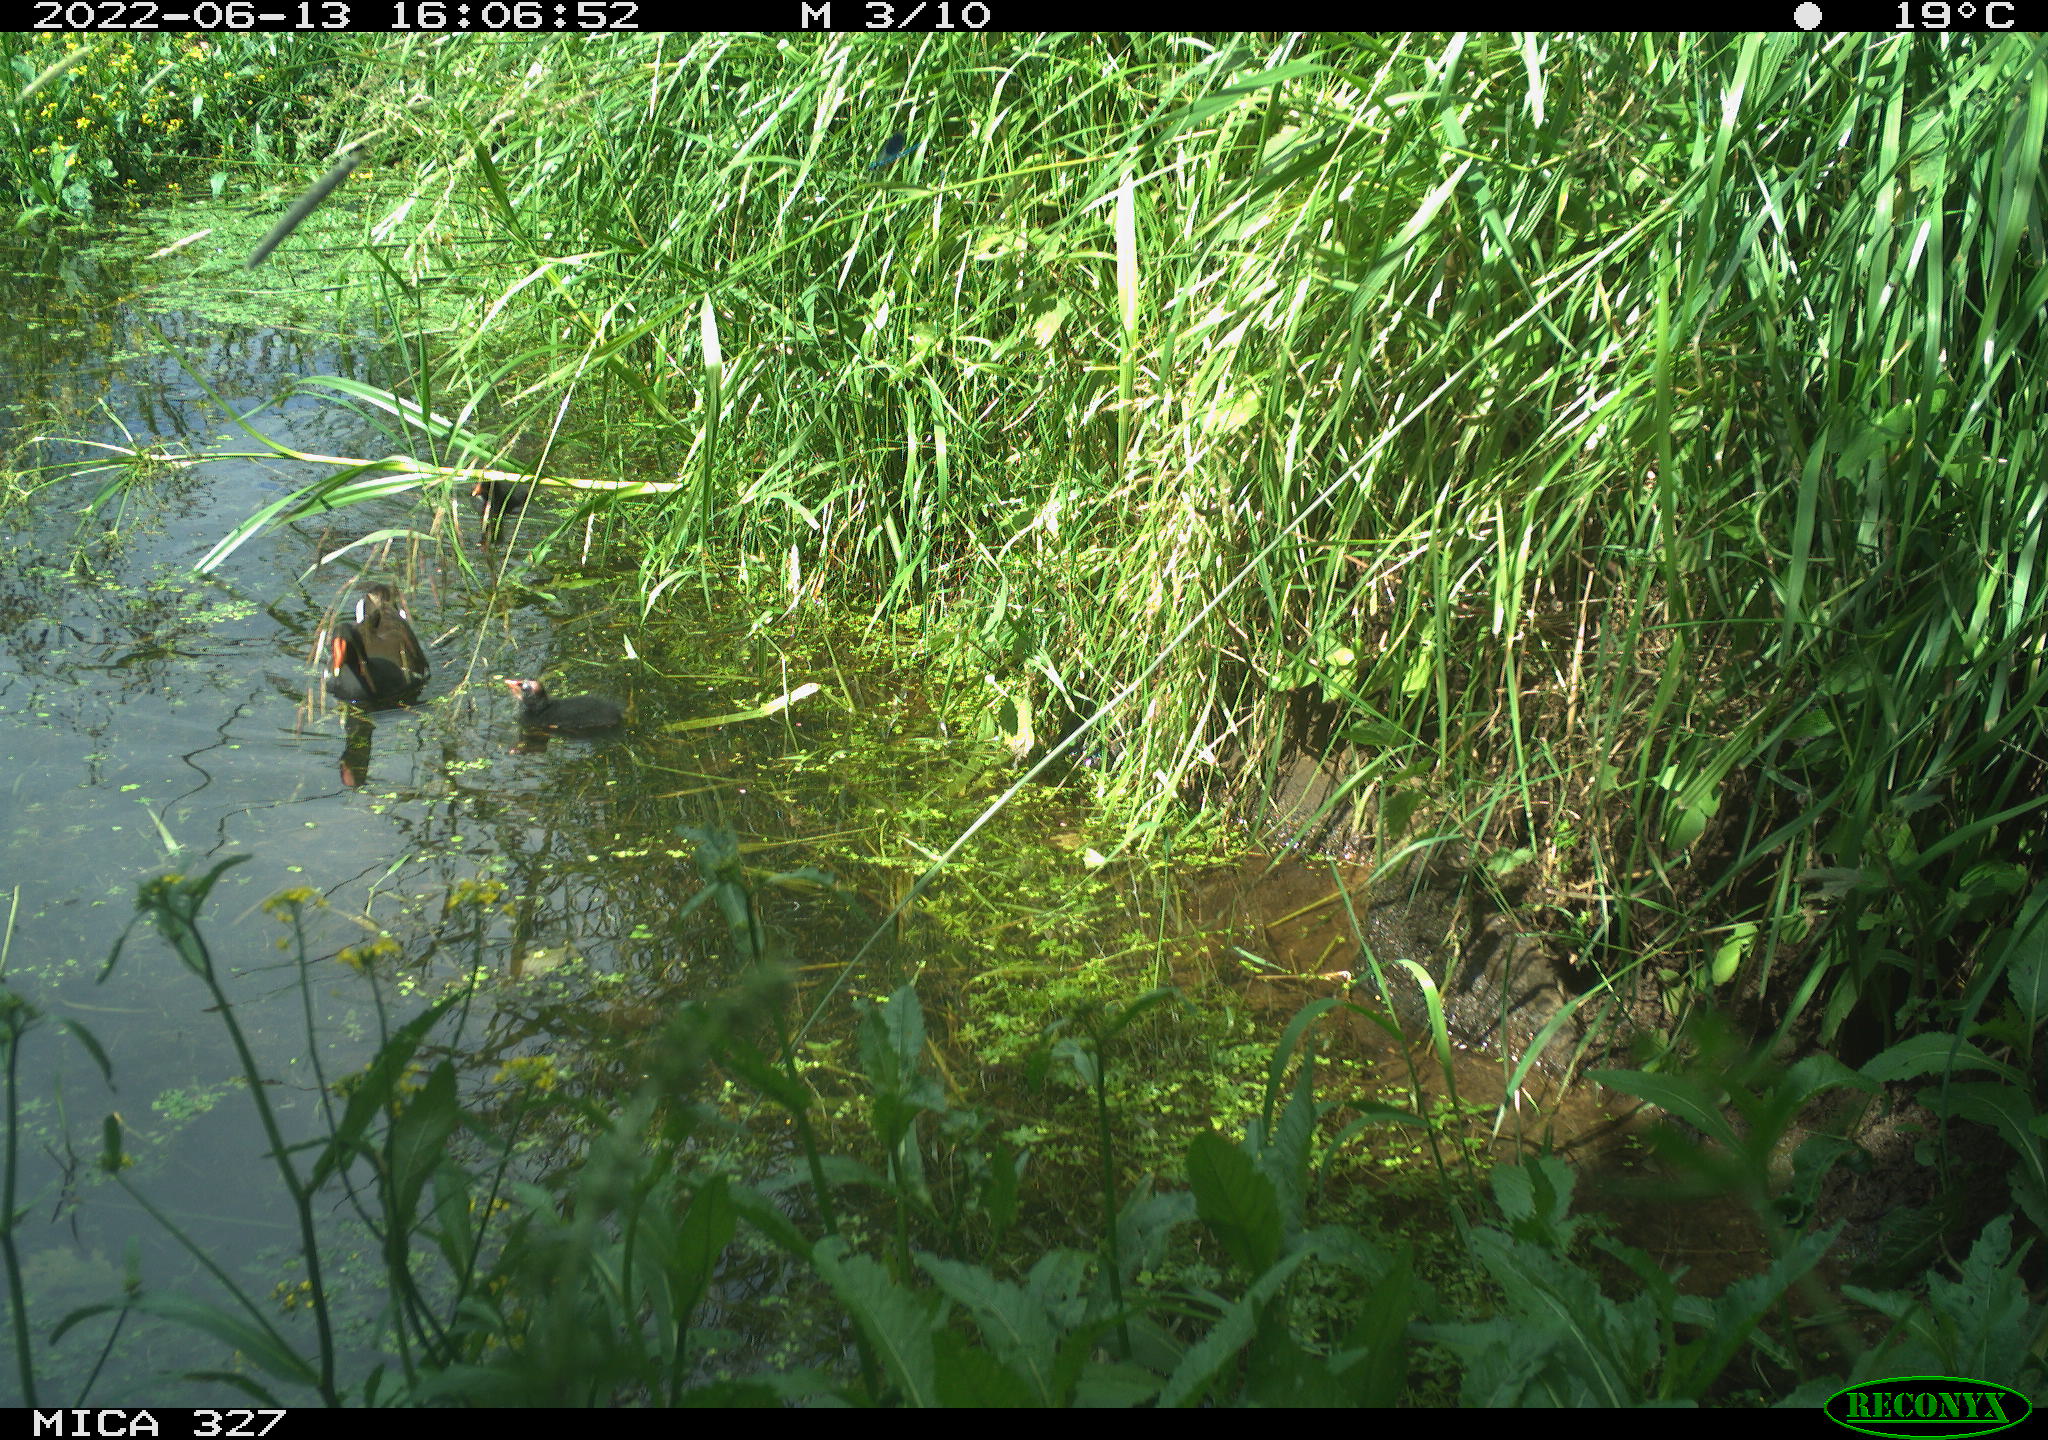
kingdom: Animalia
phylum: Chordata
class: Aves
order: Gruiformes
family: Rallidae
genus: Gallinula
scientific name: Gallinula chloropus
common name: Common moorhen
